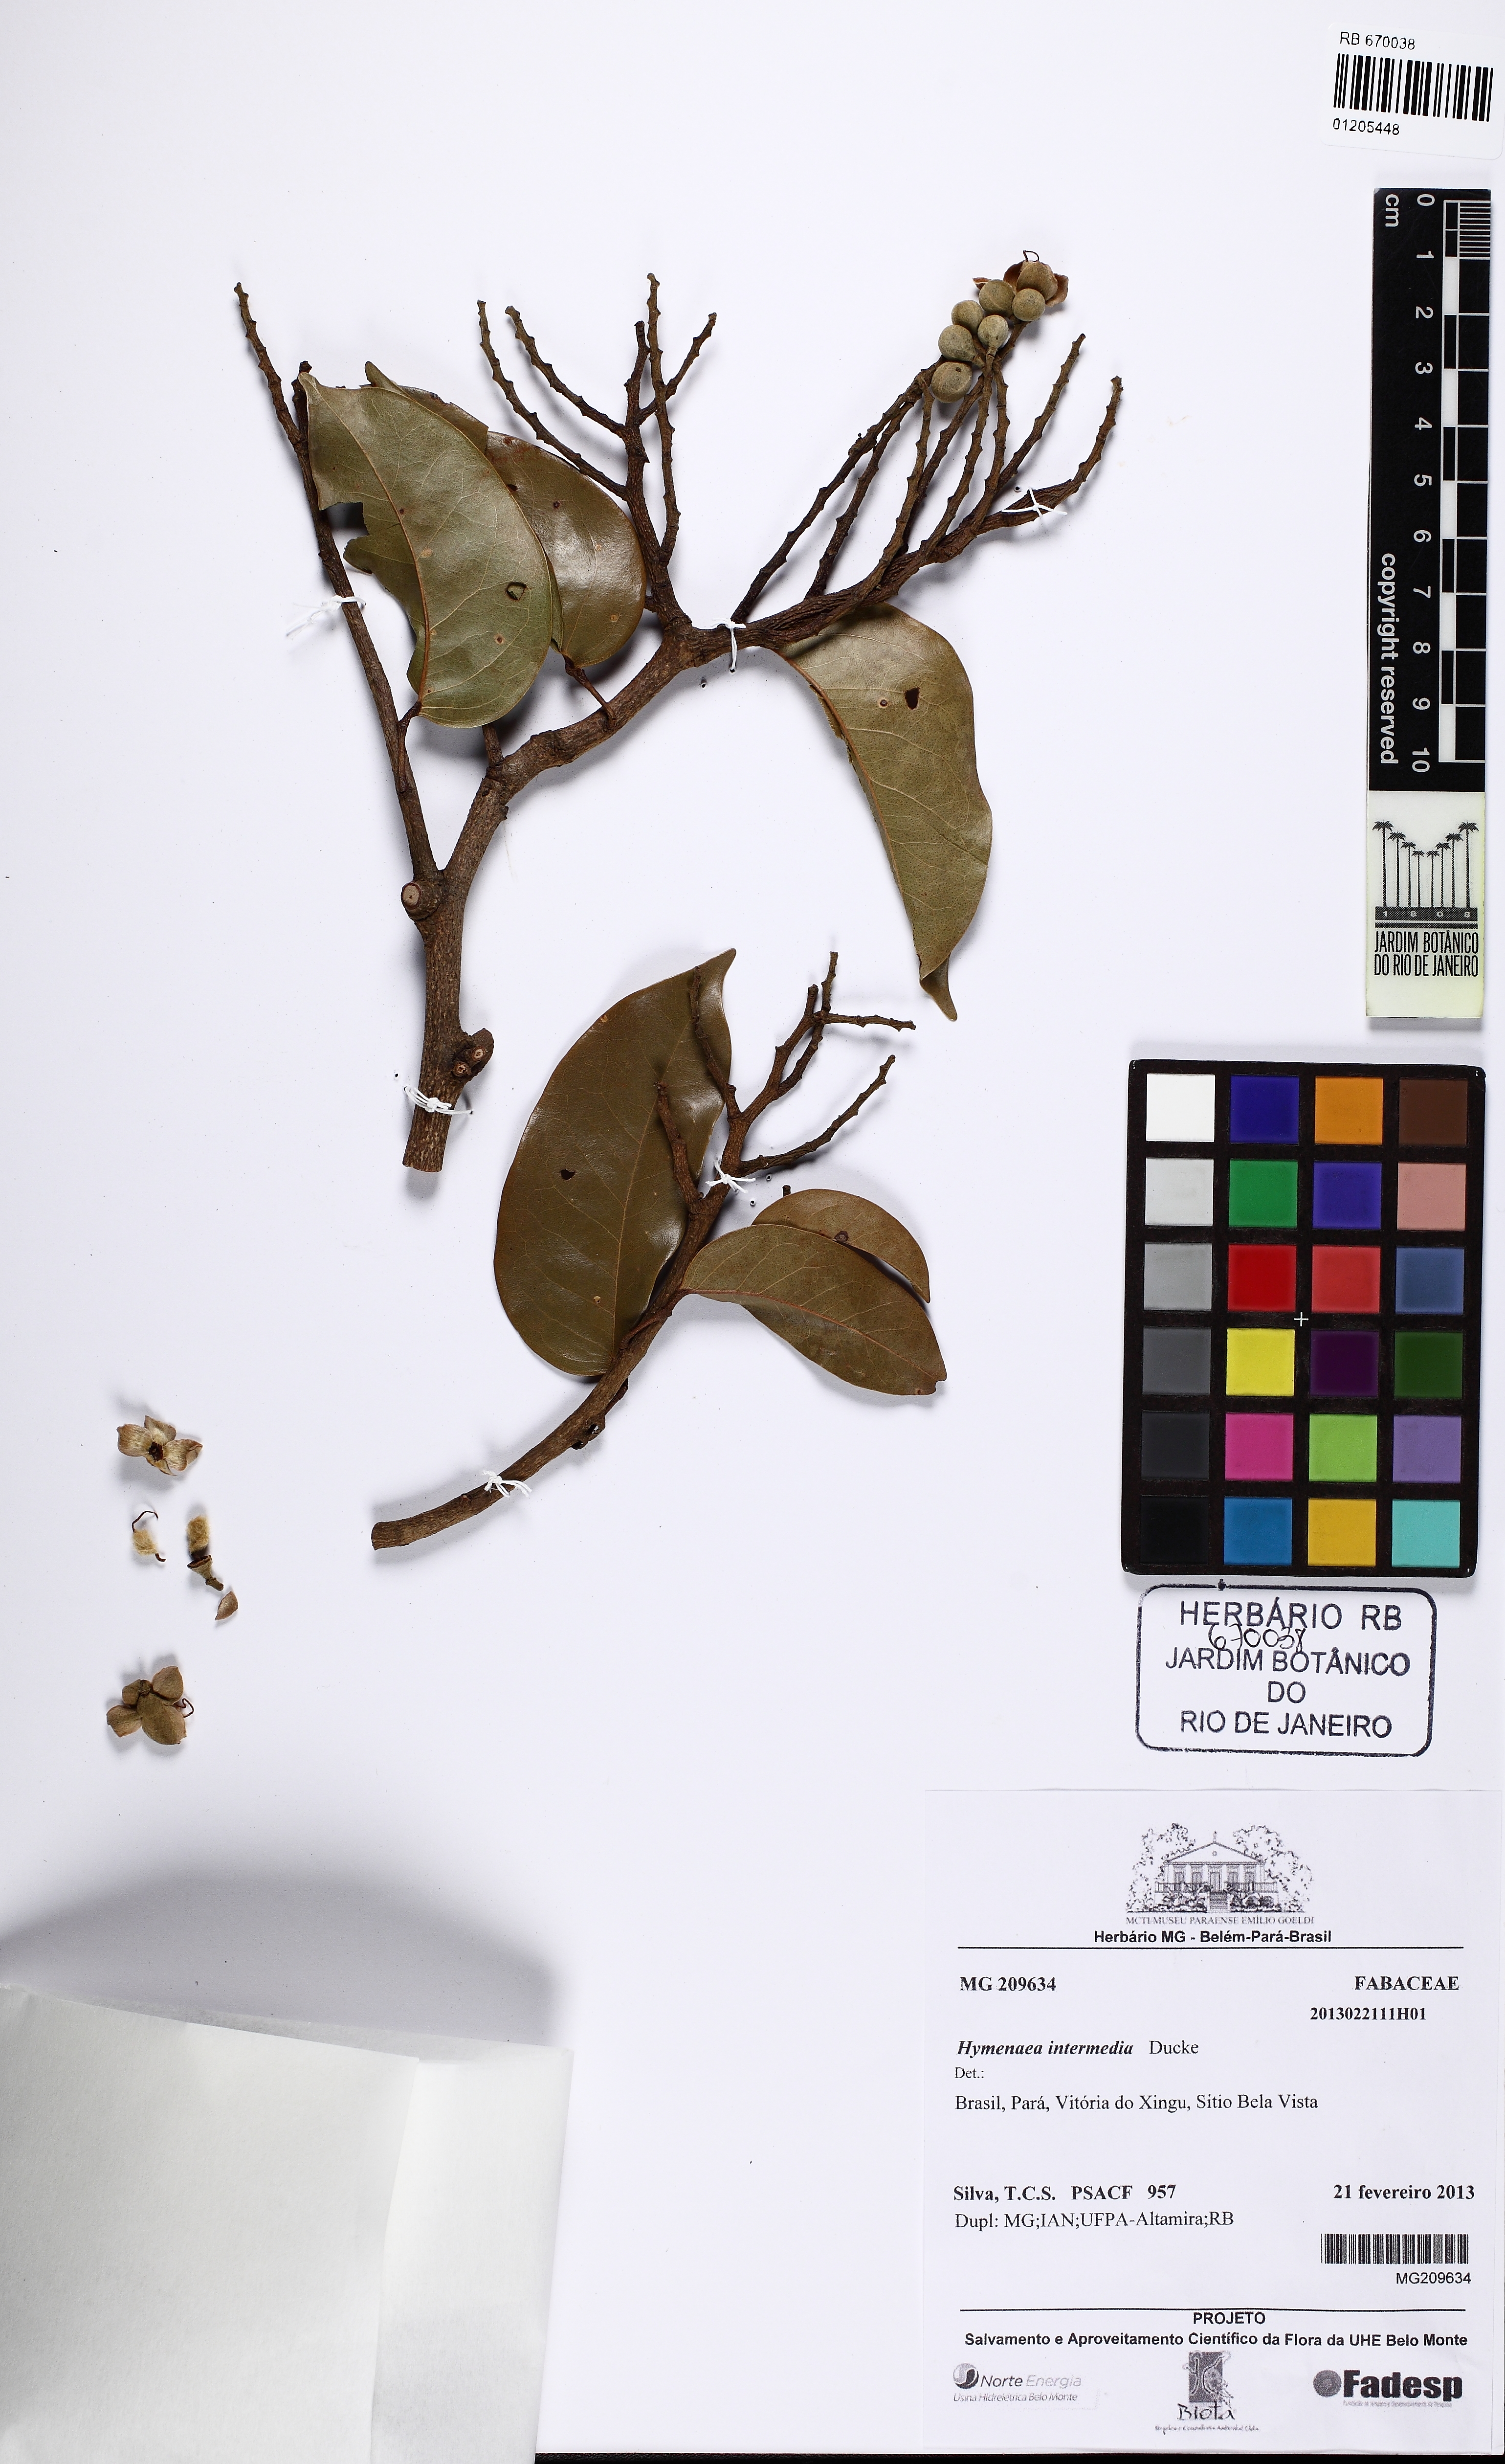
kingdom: Plantae
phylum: Tracheophyta
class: Magnoliopsida
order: Fabales
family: Fabaceae
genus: Hymenaea
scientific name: Hymenaea intermedia
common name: South american copal
